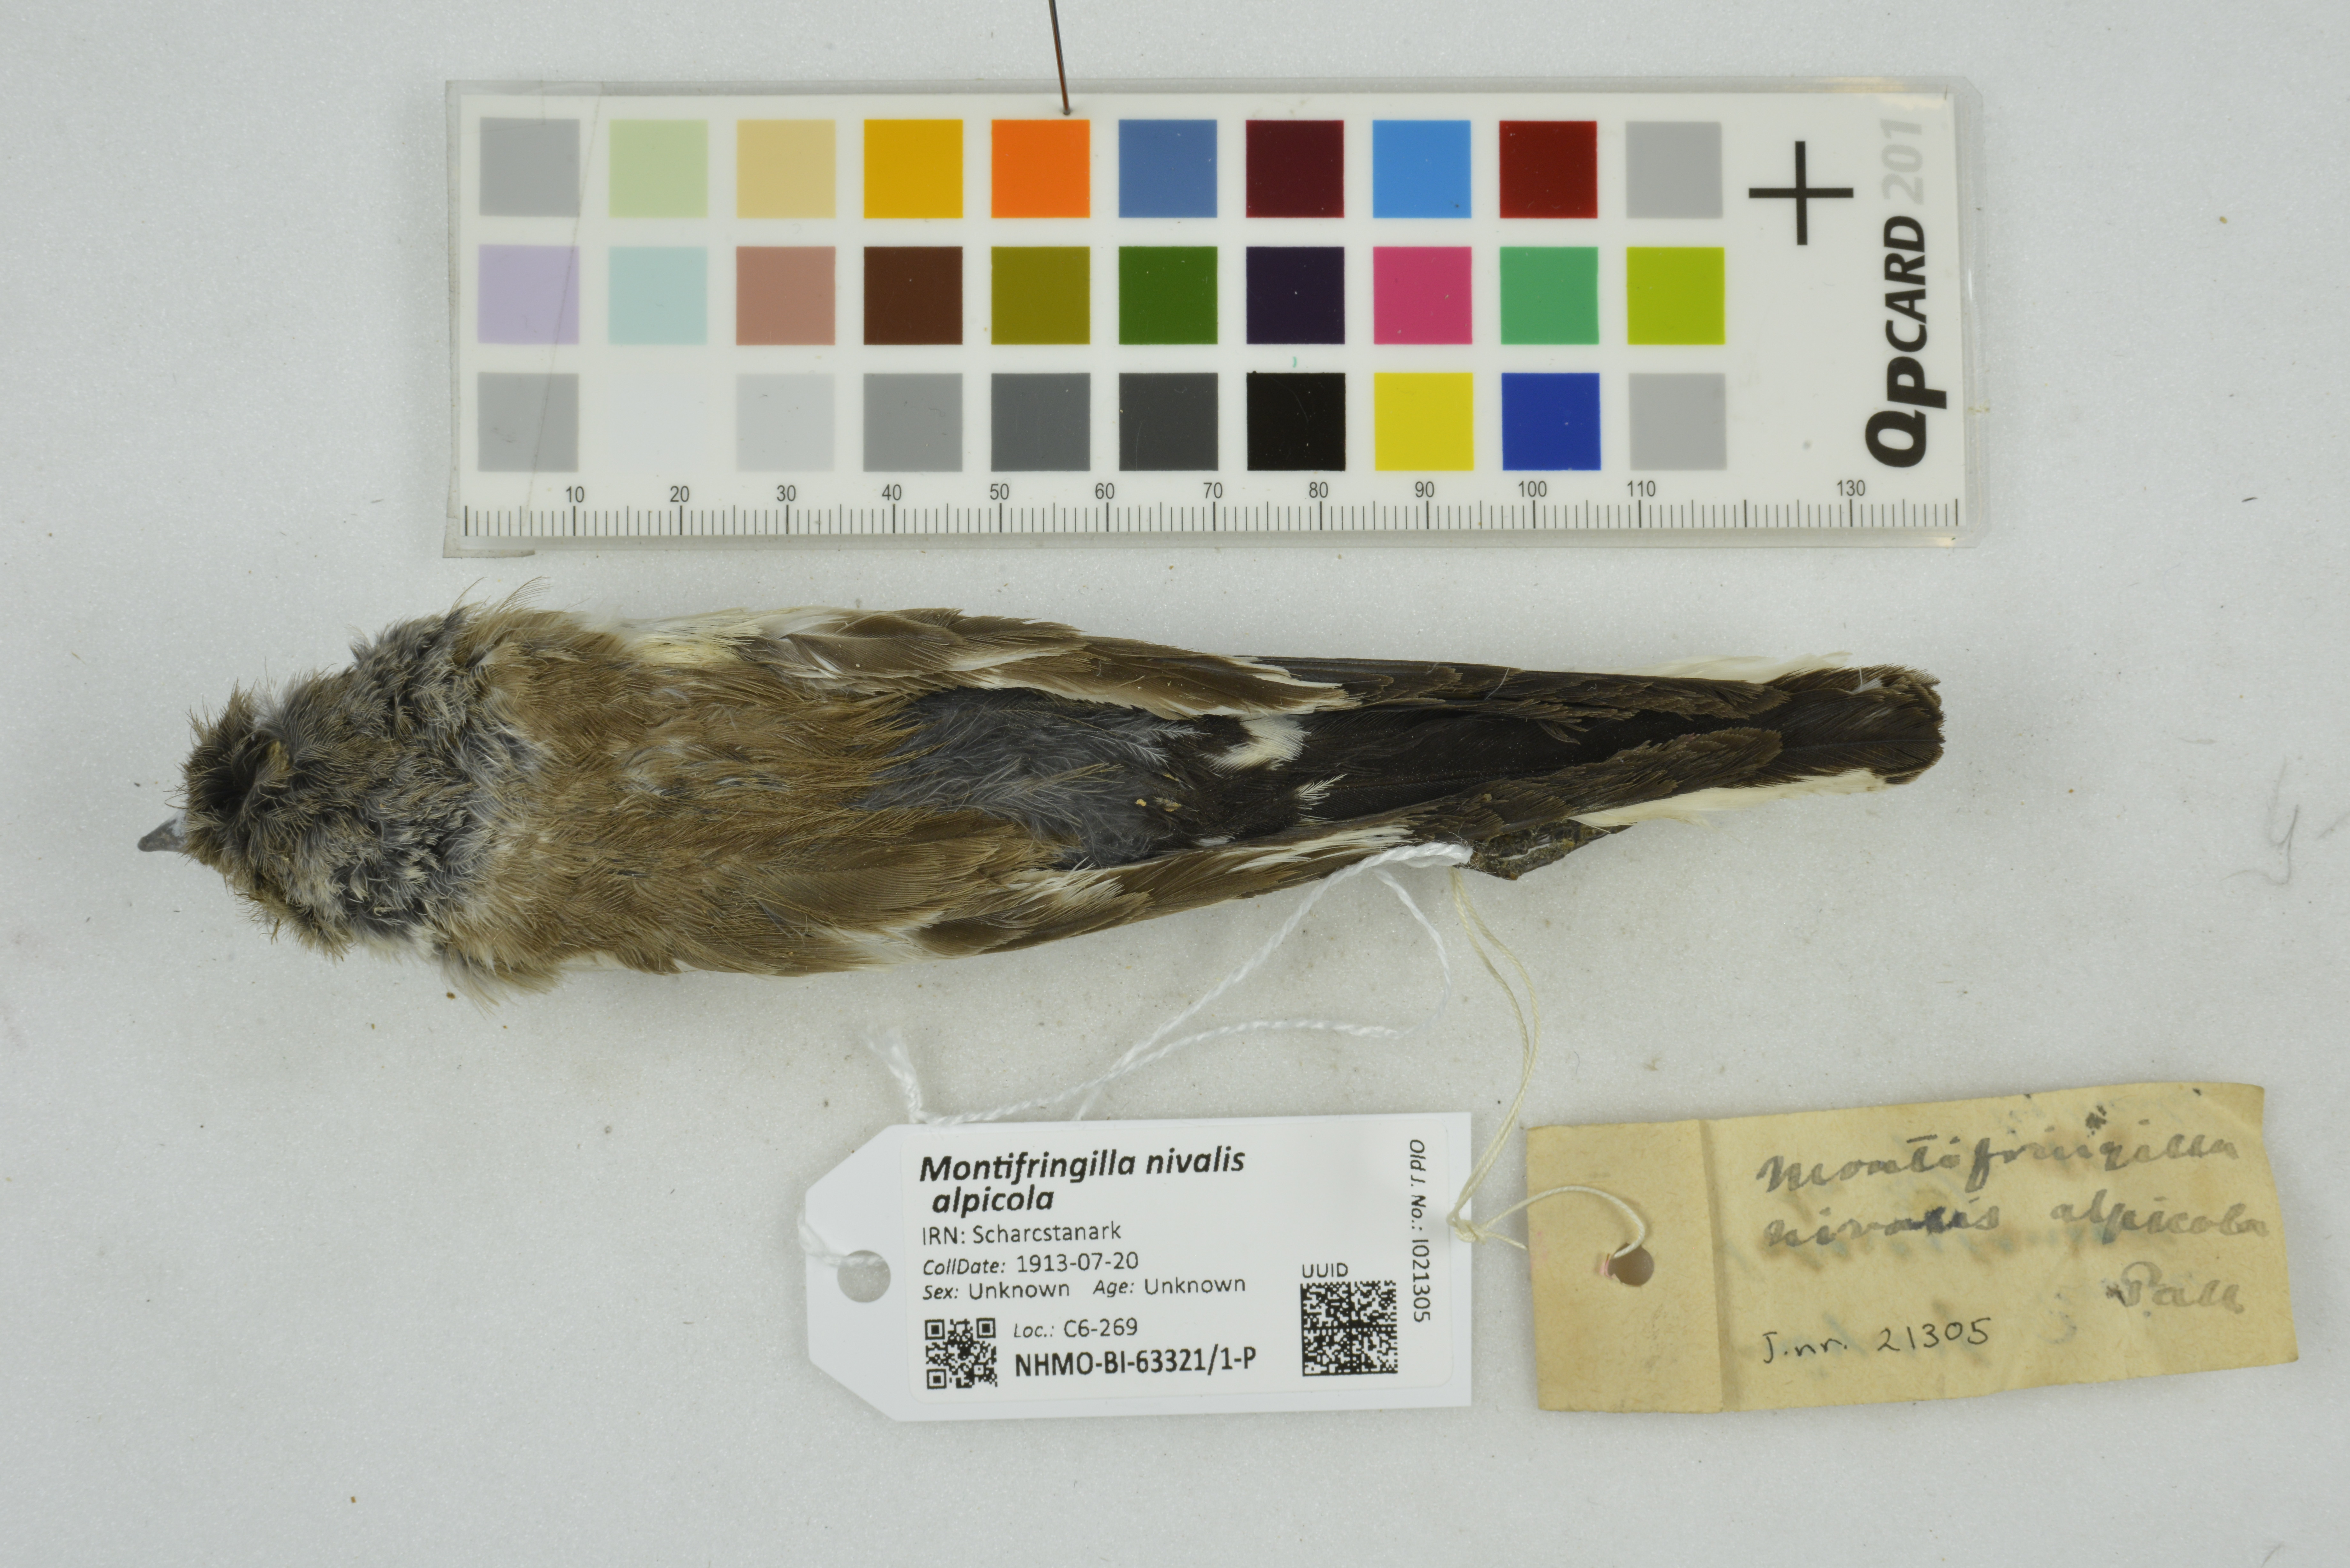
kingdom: Animalia
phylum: Chordata
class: Aves
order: Passeriformes
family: Passeridae
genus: Montifringilla
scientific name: Montifringilla nivalis
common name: White-winged snowfinch
